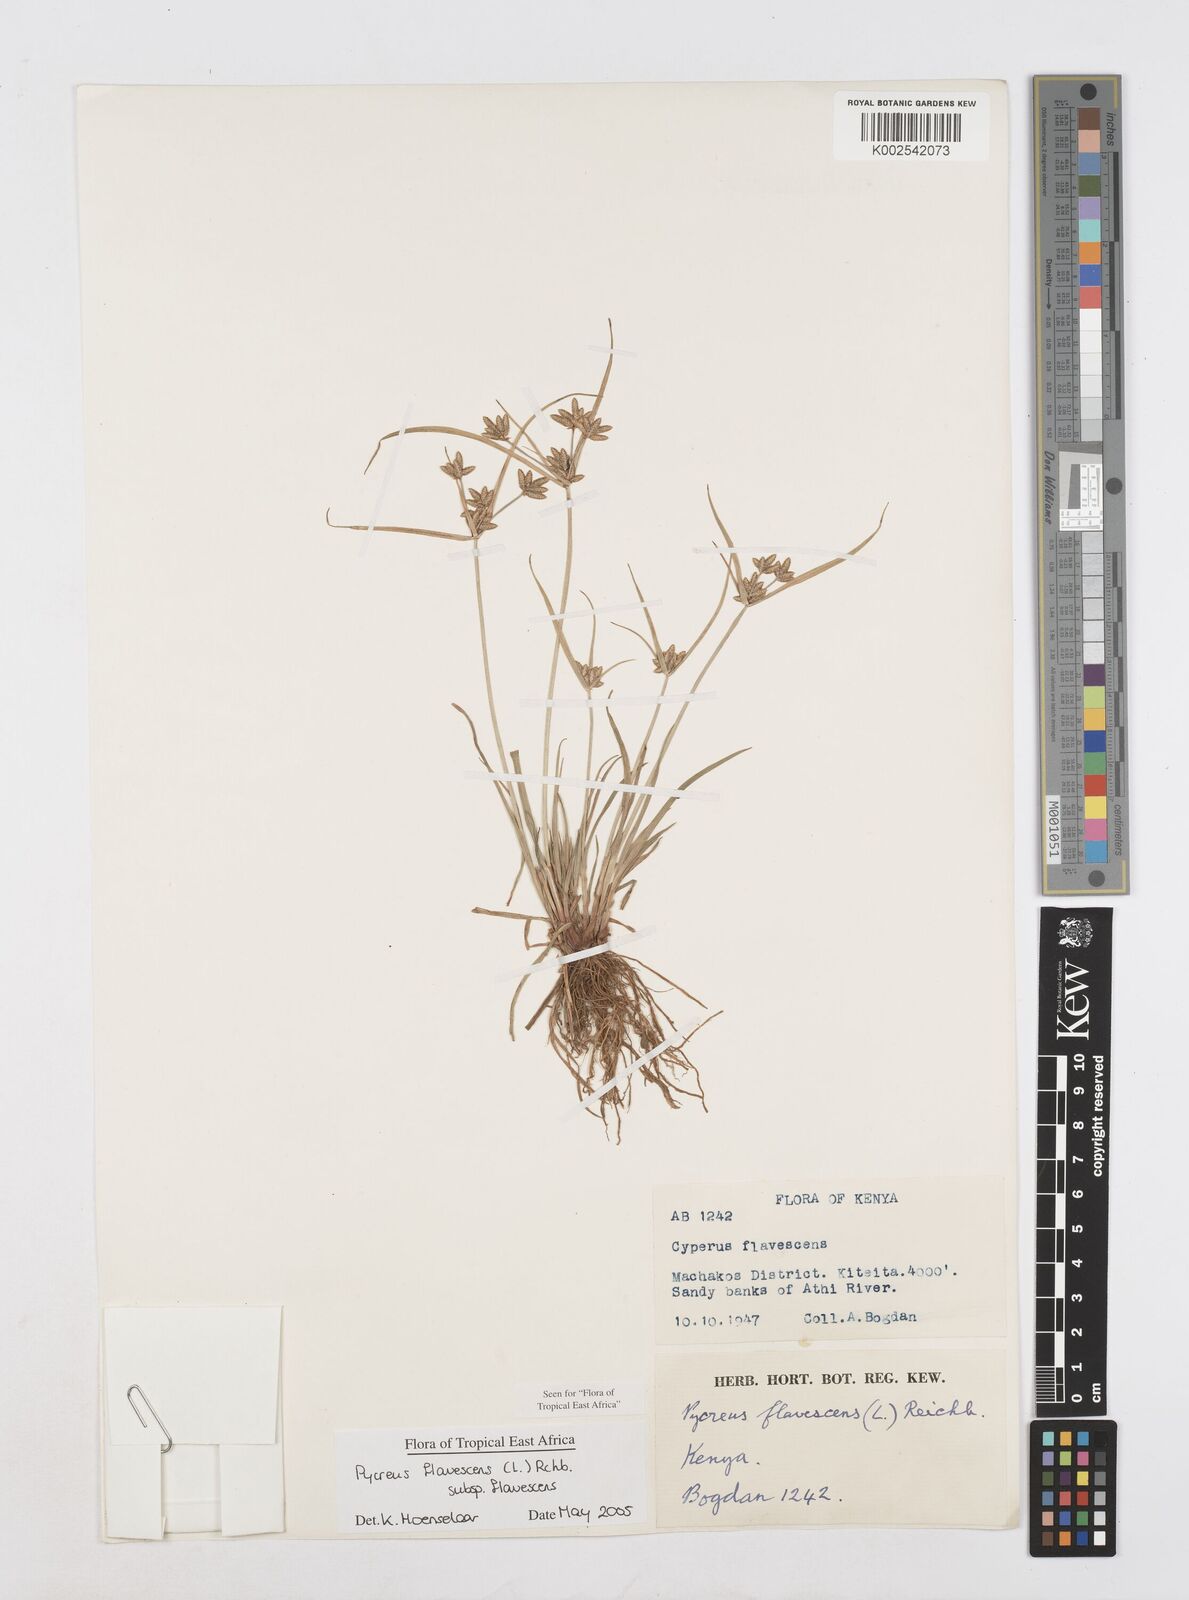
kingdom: Plantae
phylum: Tracheophyta
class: Liliopsida
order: Poales
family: Cyperaceae
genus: Cyperus
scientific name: Cyperus flavescens
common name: Yellow galingale
